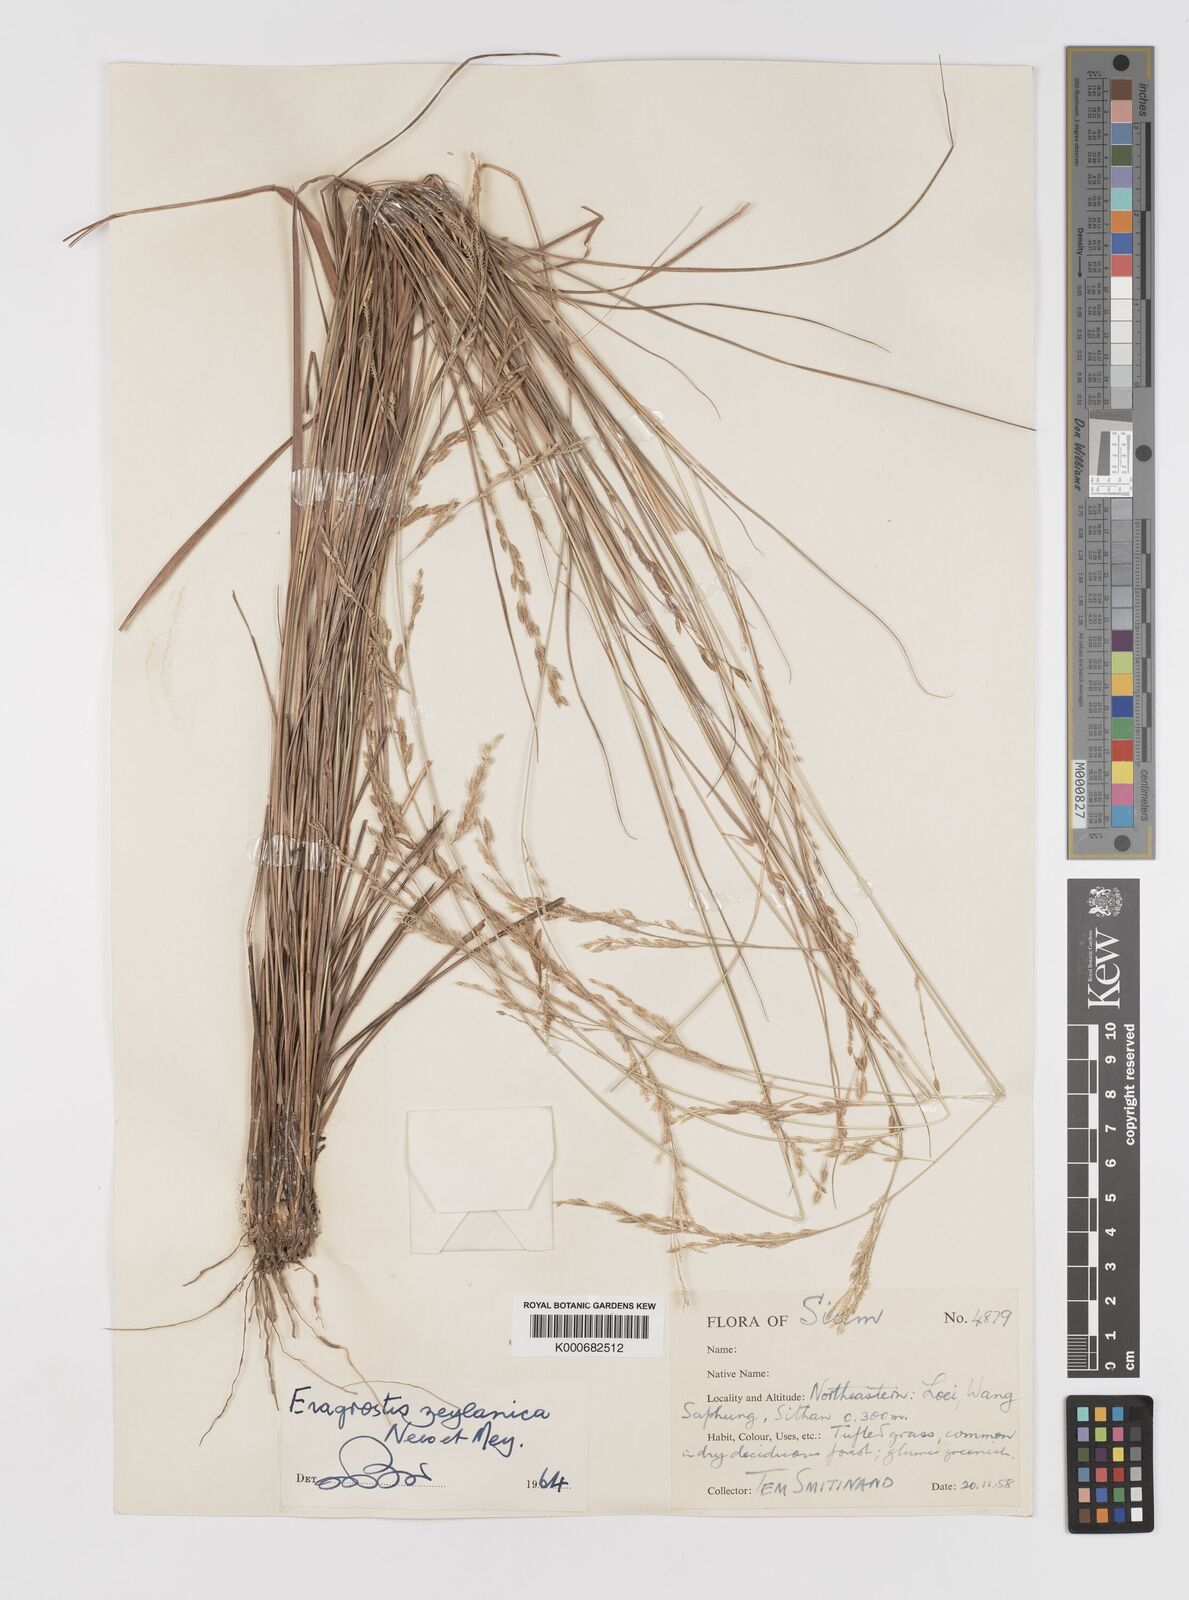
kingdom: Plantae
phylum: Tracheophyta
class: Liliopsida
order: Poales
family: Poaceae
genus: Eragrostis
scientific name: Eragrostis brownii
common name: Lovegrass
